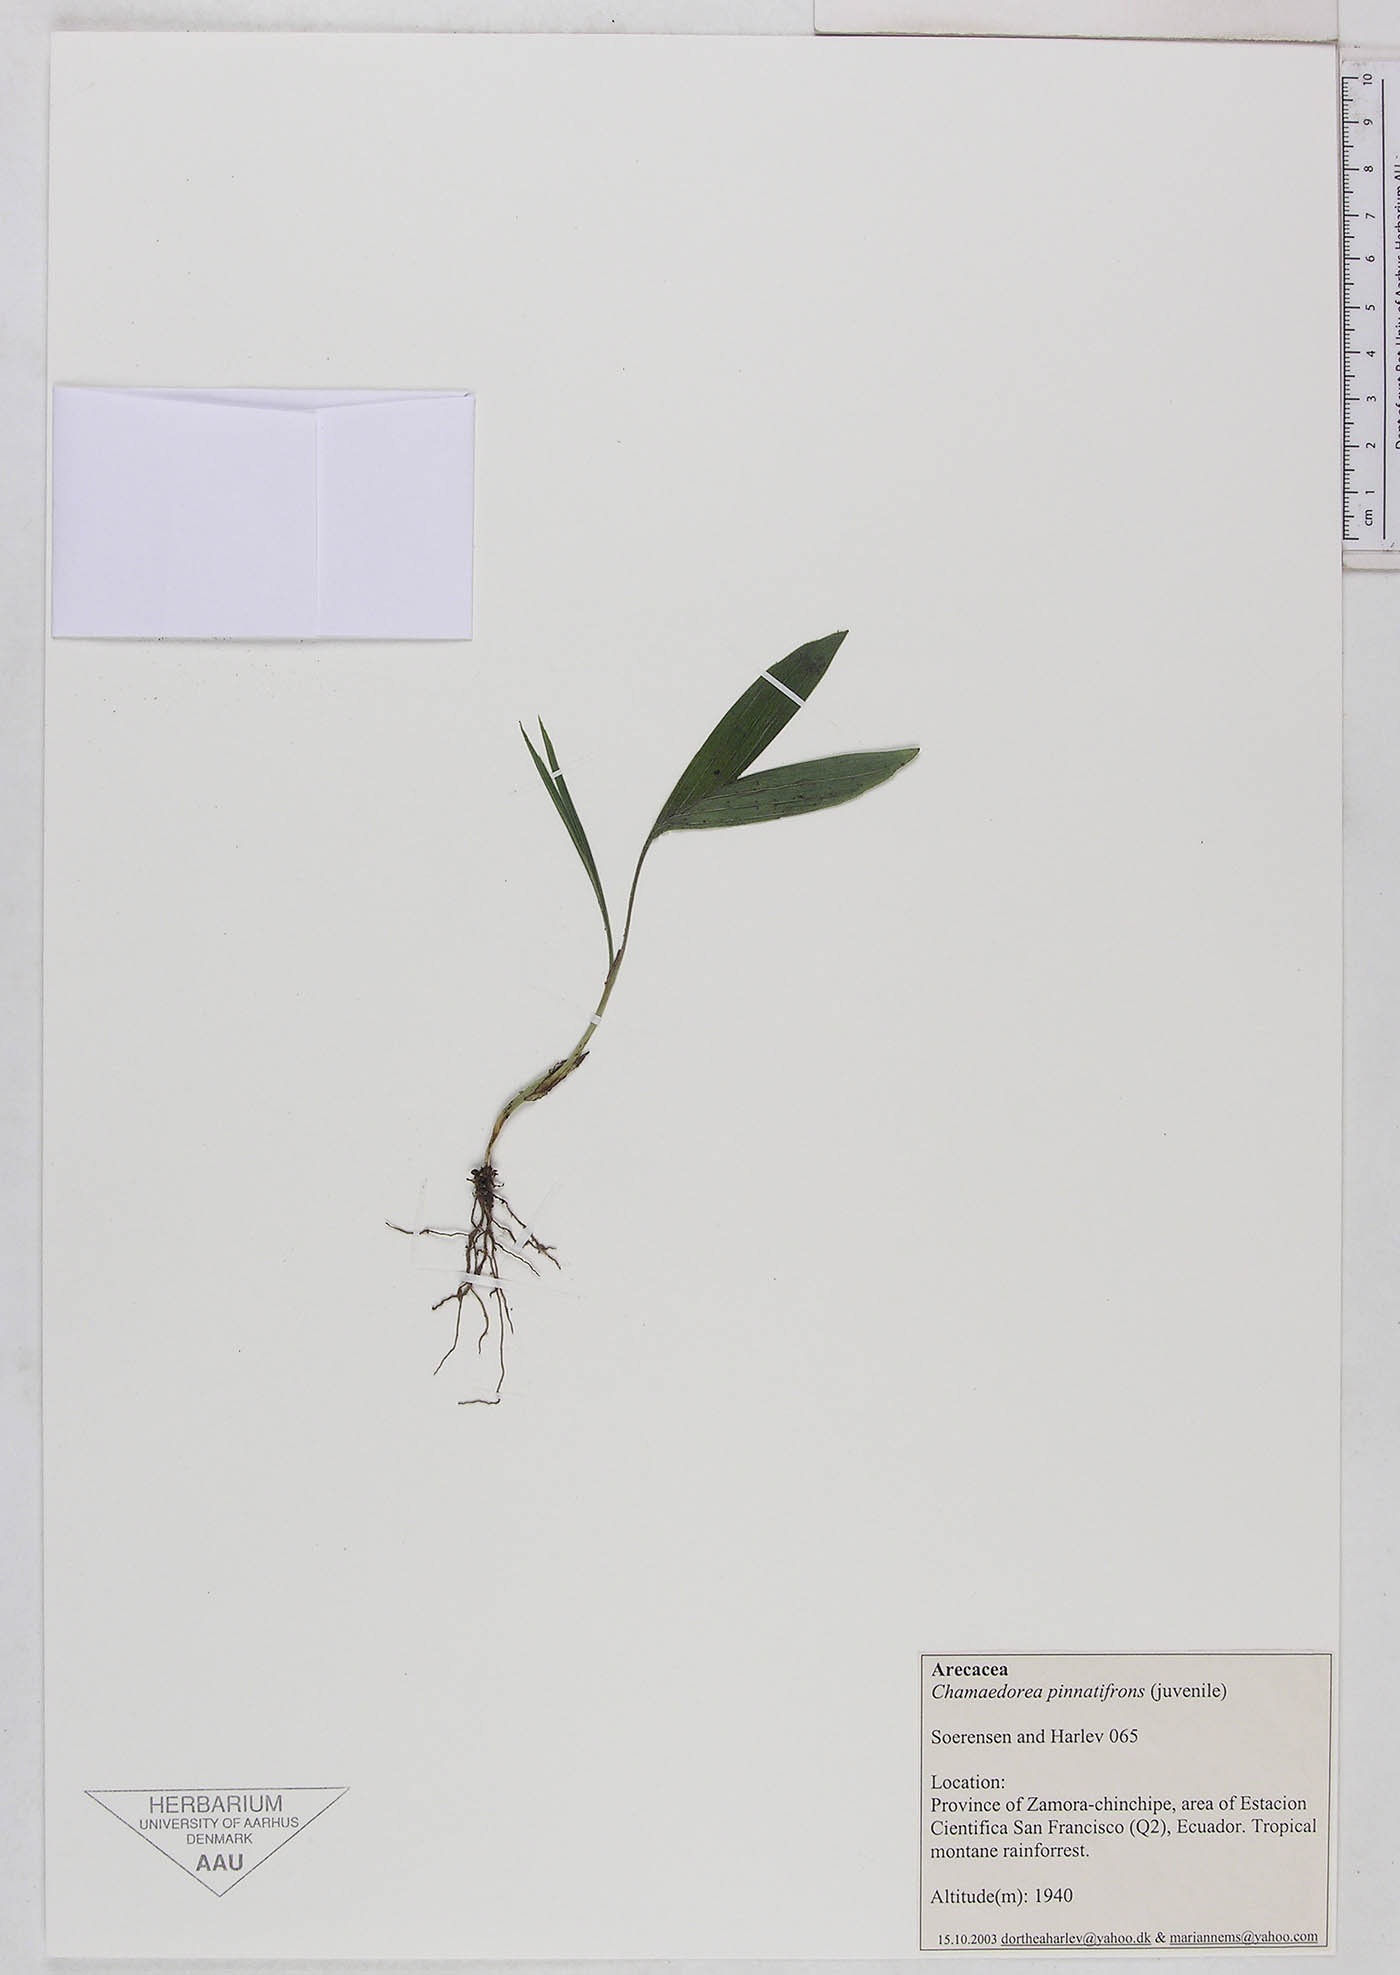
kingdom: Plantae
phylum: Tracheophyta
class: Liliopsida
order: Arecales
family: Arecaceae
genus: Chamaedorea
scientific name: Chamaedorea pinnatifrons
